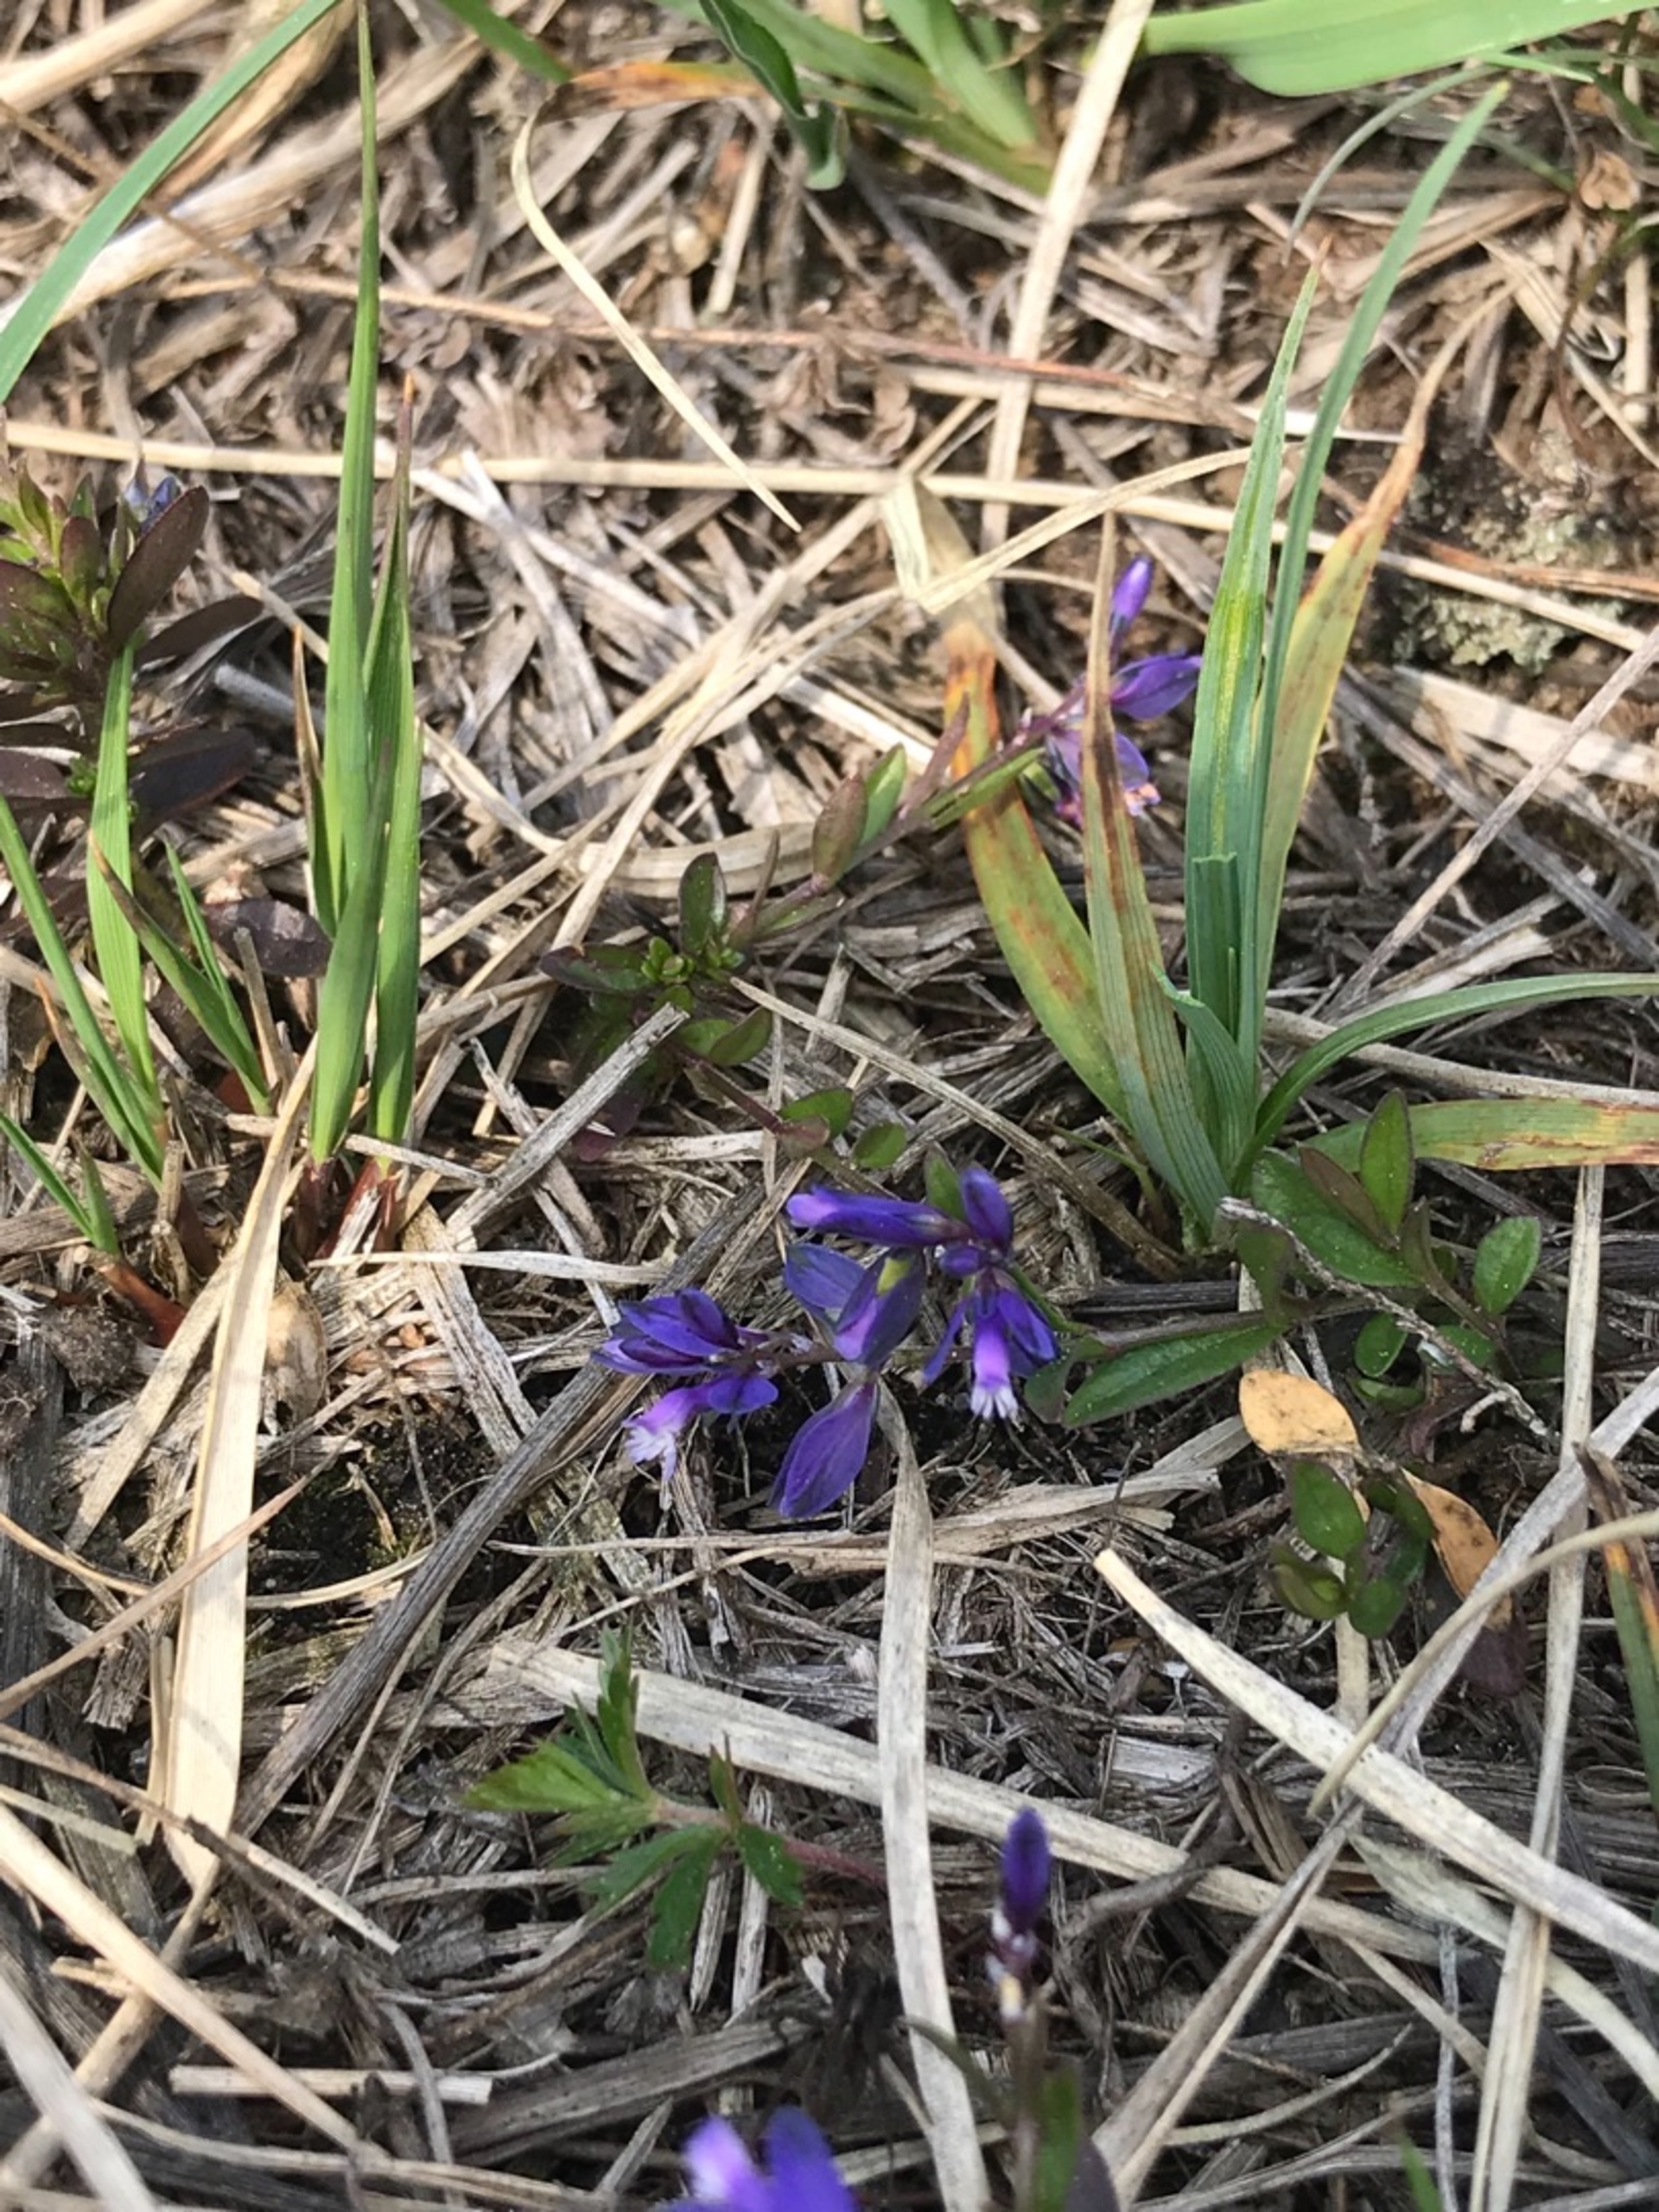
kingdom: Plantae
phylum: Tracheophyta
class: Magnoliopsida
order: Fabales
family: Polygalaceae
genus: Polygala
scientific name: Polygala serpyllifolia
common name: Spæd mælkeurt
